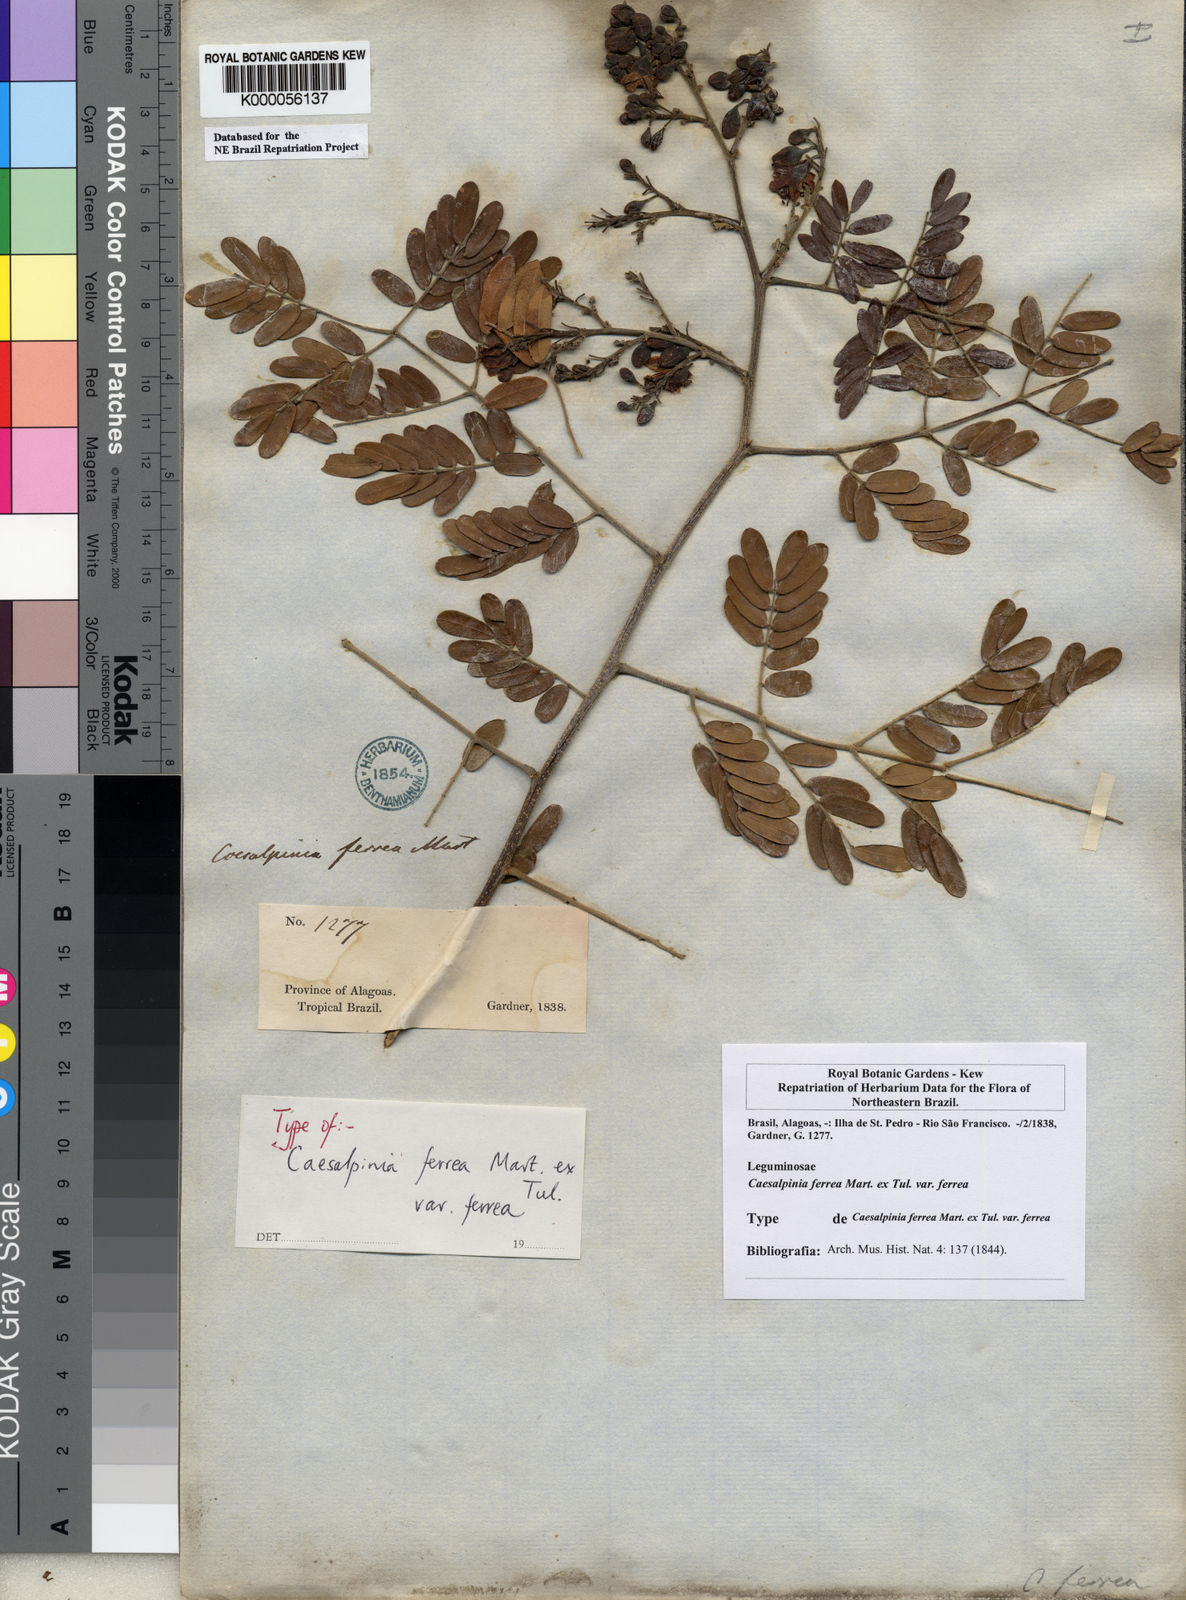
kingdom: Plantae
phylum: Tracheophyta
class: Magnoliopsida
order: Fabales
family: Fabaceae
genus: Libidibia
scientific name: Libidibia ferrea
